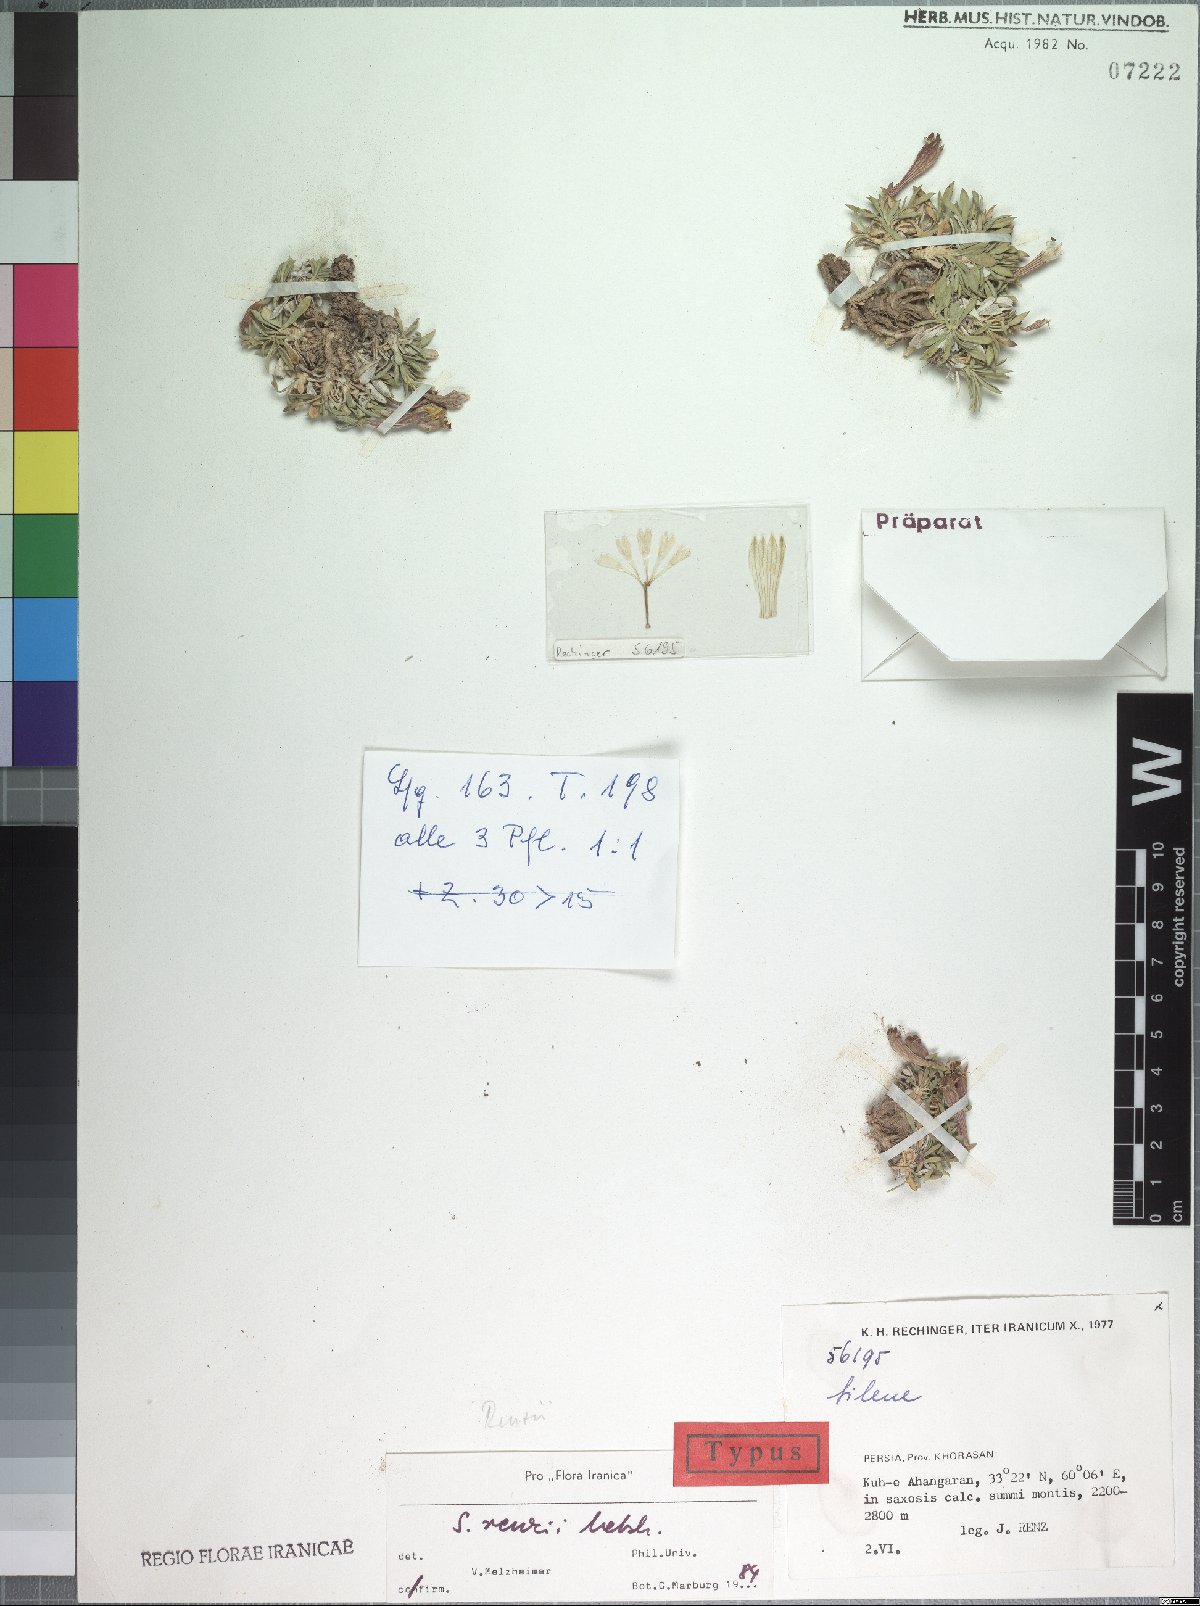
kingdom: Plantae
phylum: Tracheophyta
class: Magnoliopsida
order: Caryophyllales
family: Caryophyllaceae
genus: Silene
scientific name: Silene renzii
